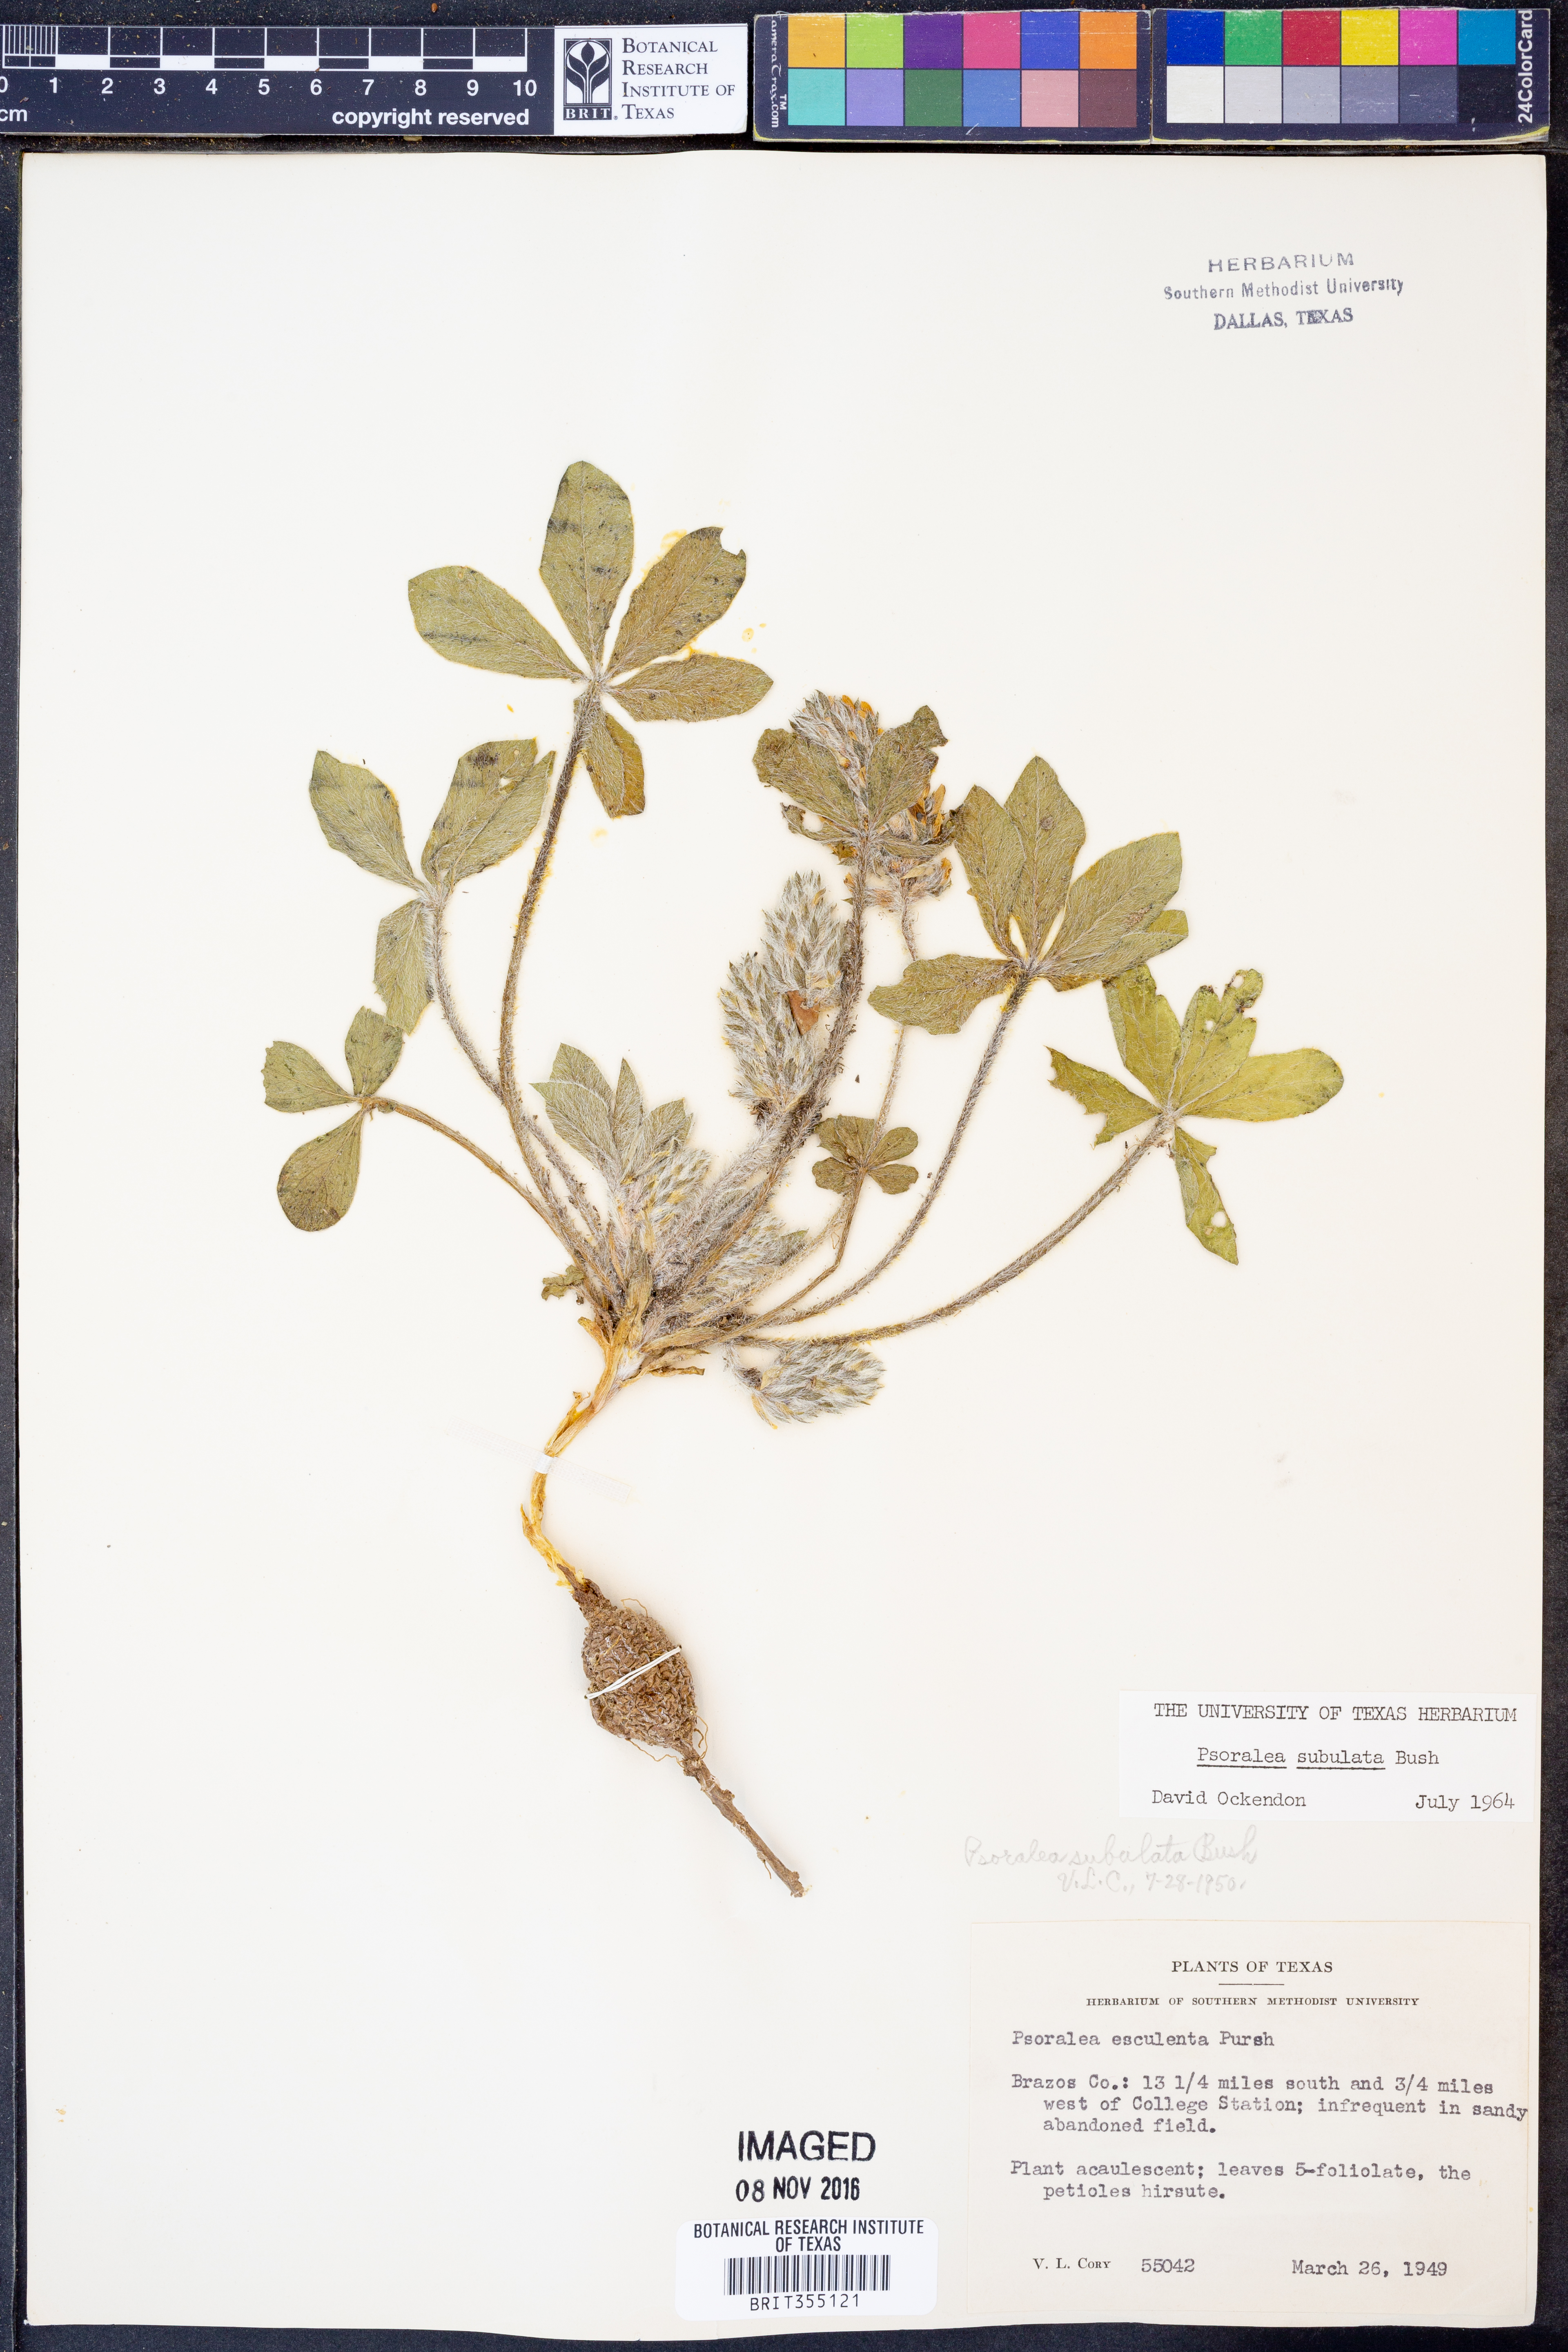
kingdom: Plantae
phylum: Tracheophyta
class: Magnoliopsida
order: Fabales
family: Fabaceae
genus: Pediomelum
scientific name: Pediomelum hypogaeum
